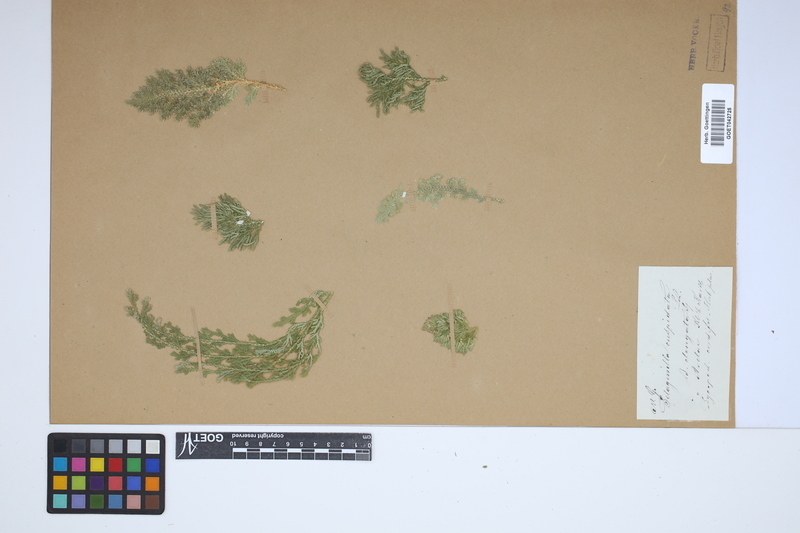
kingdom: Plantae
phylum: Tracheophyta
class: Lycopodiopsida
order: Selaginellales
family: Selaginellaceae
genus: Selaginella
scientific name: Selaginella pallescens
